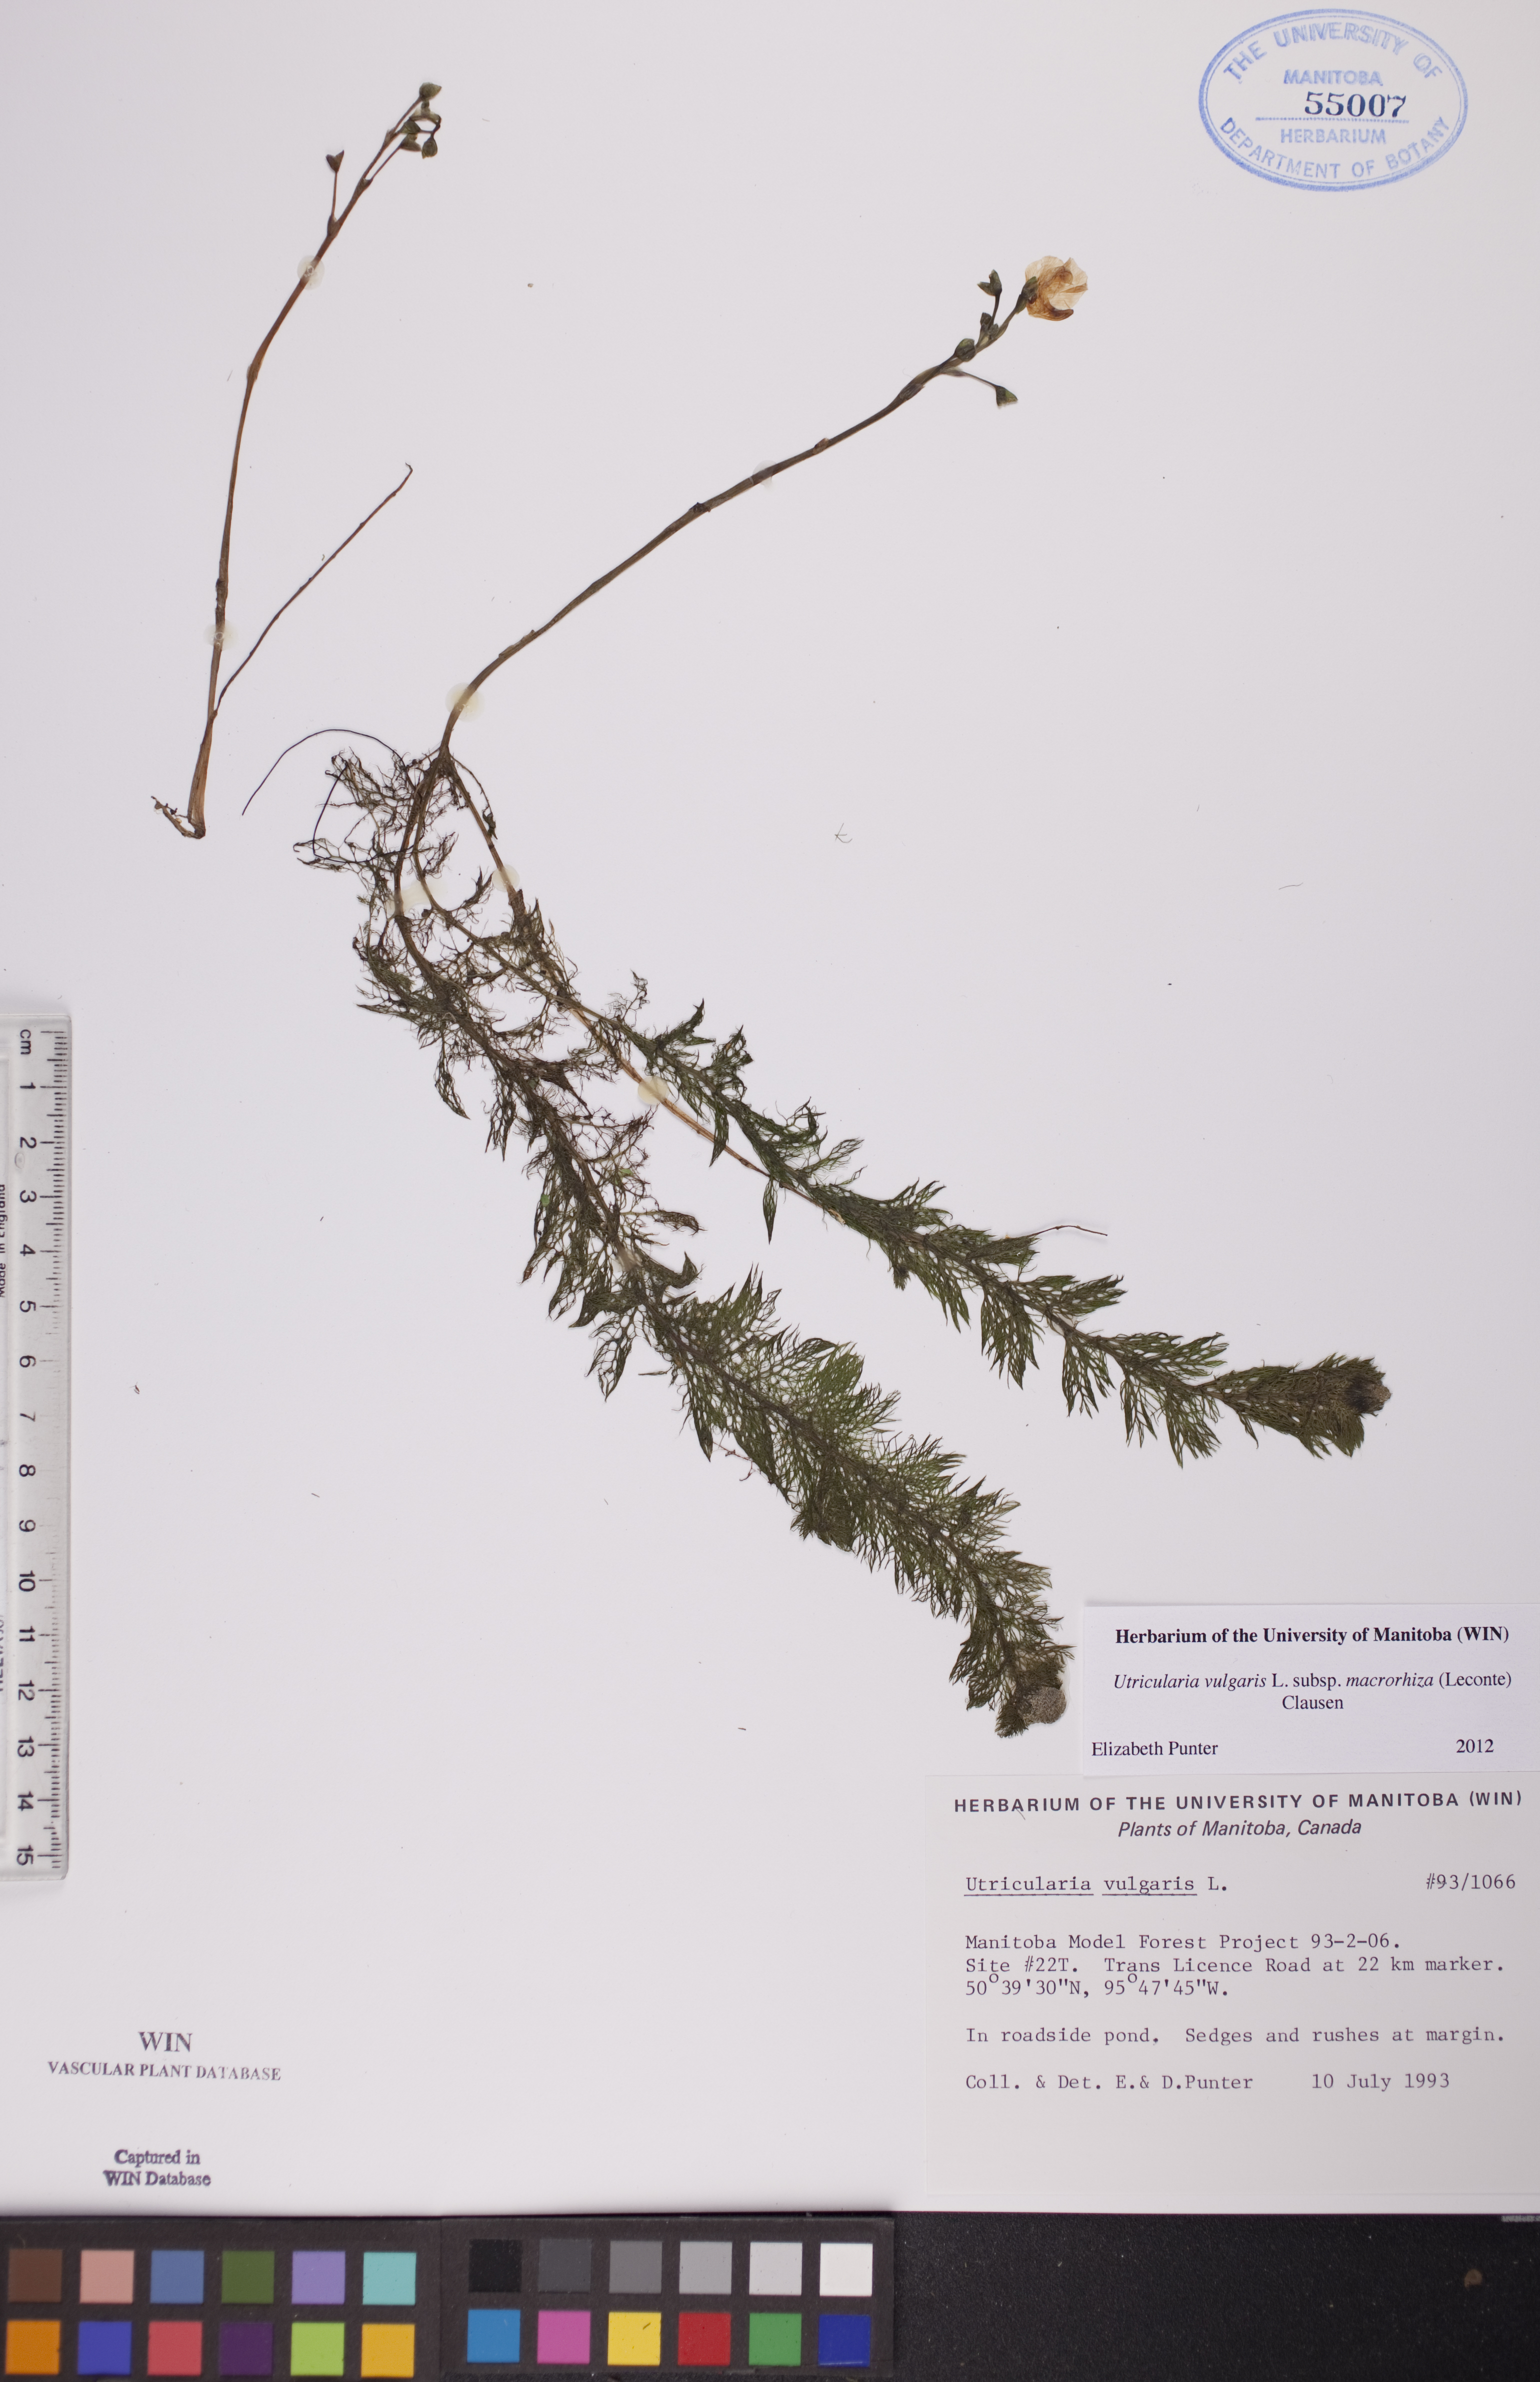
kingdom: Plantae
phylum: Tracheophyta
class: Magnoliopsida
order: Lamiales
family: Lentibulariaceae
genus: Utricularia
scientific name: Utricularia macrorhiza
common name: Common bladderwort
